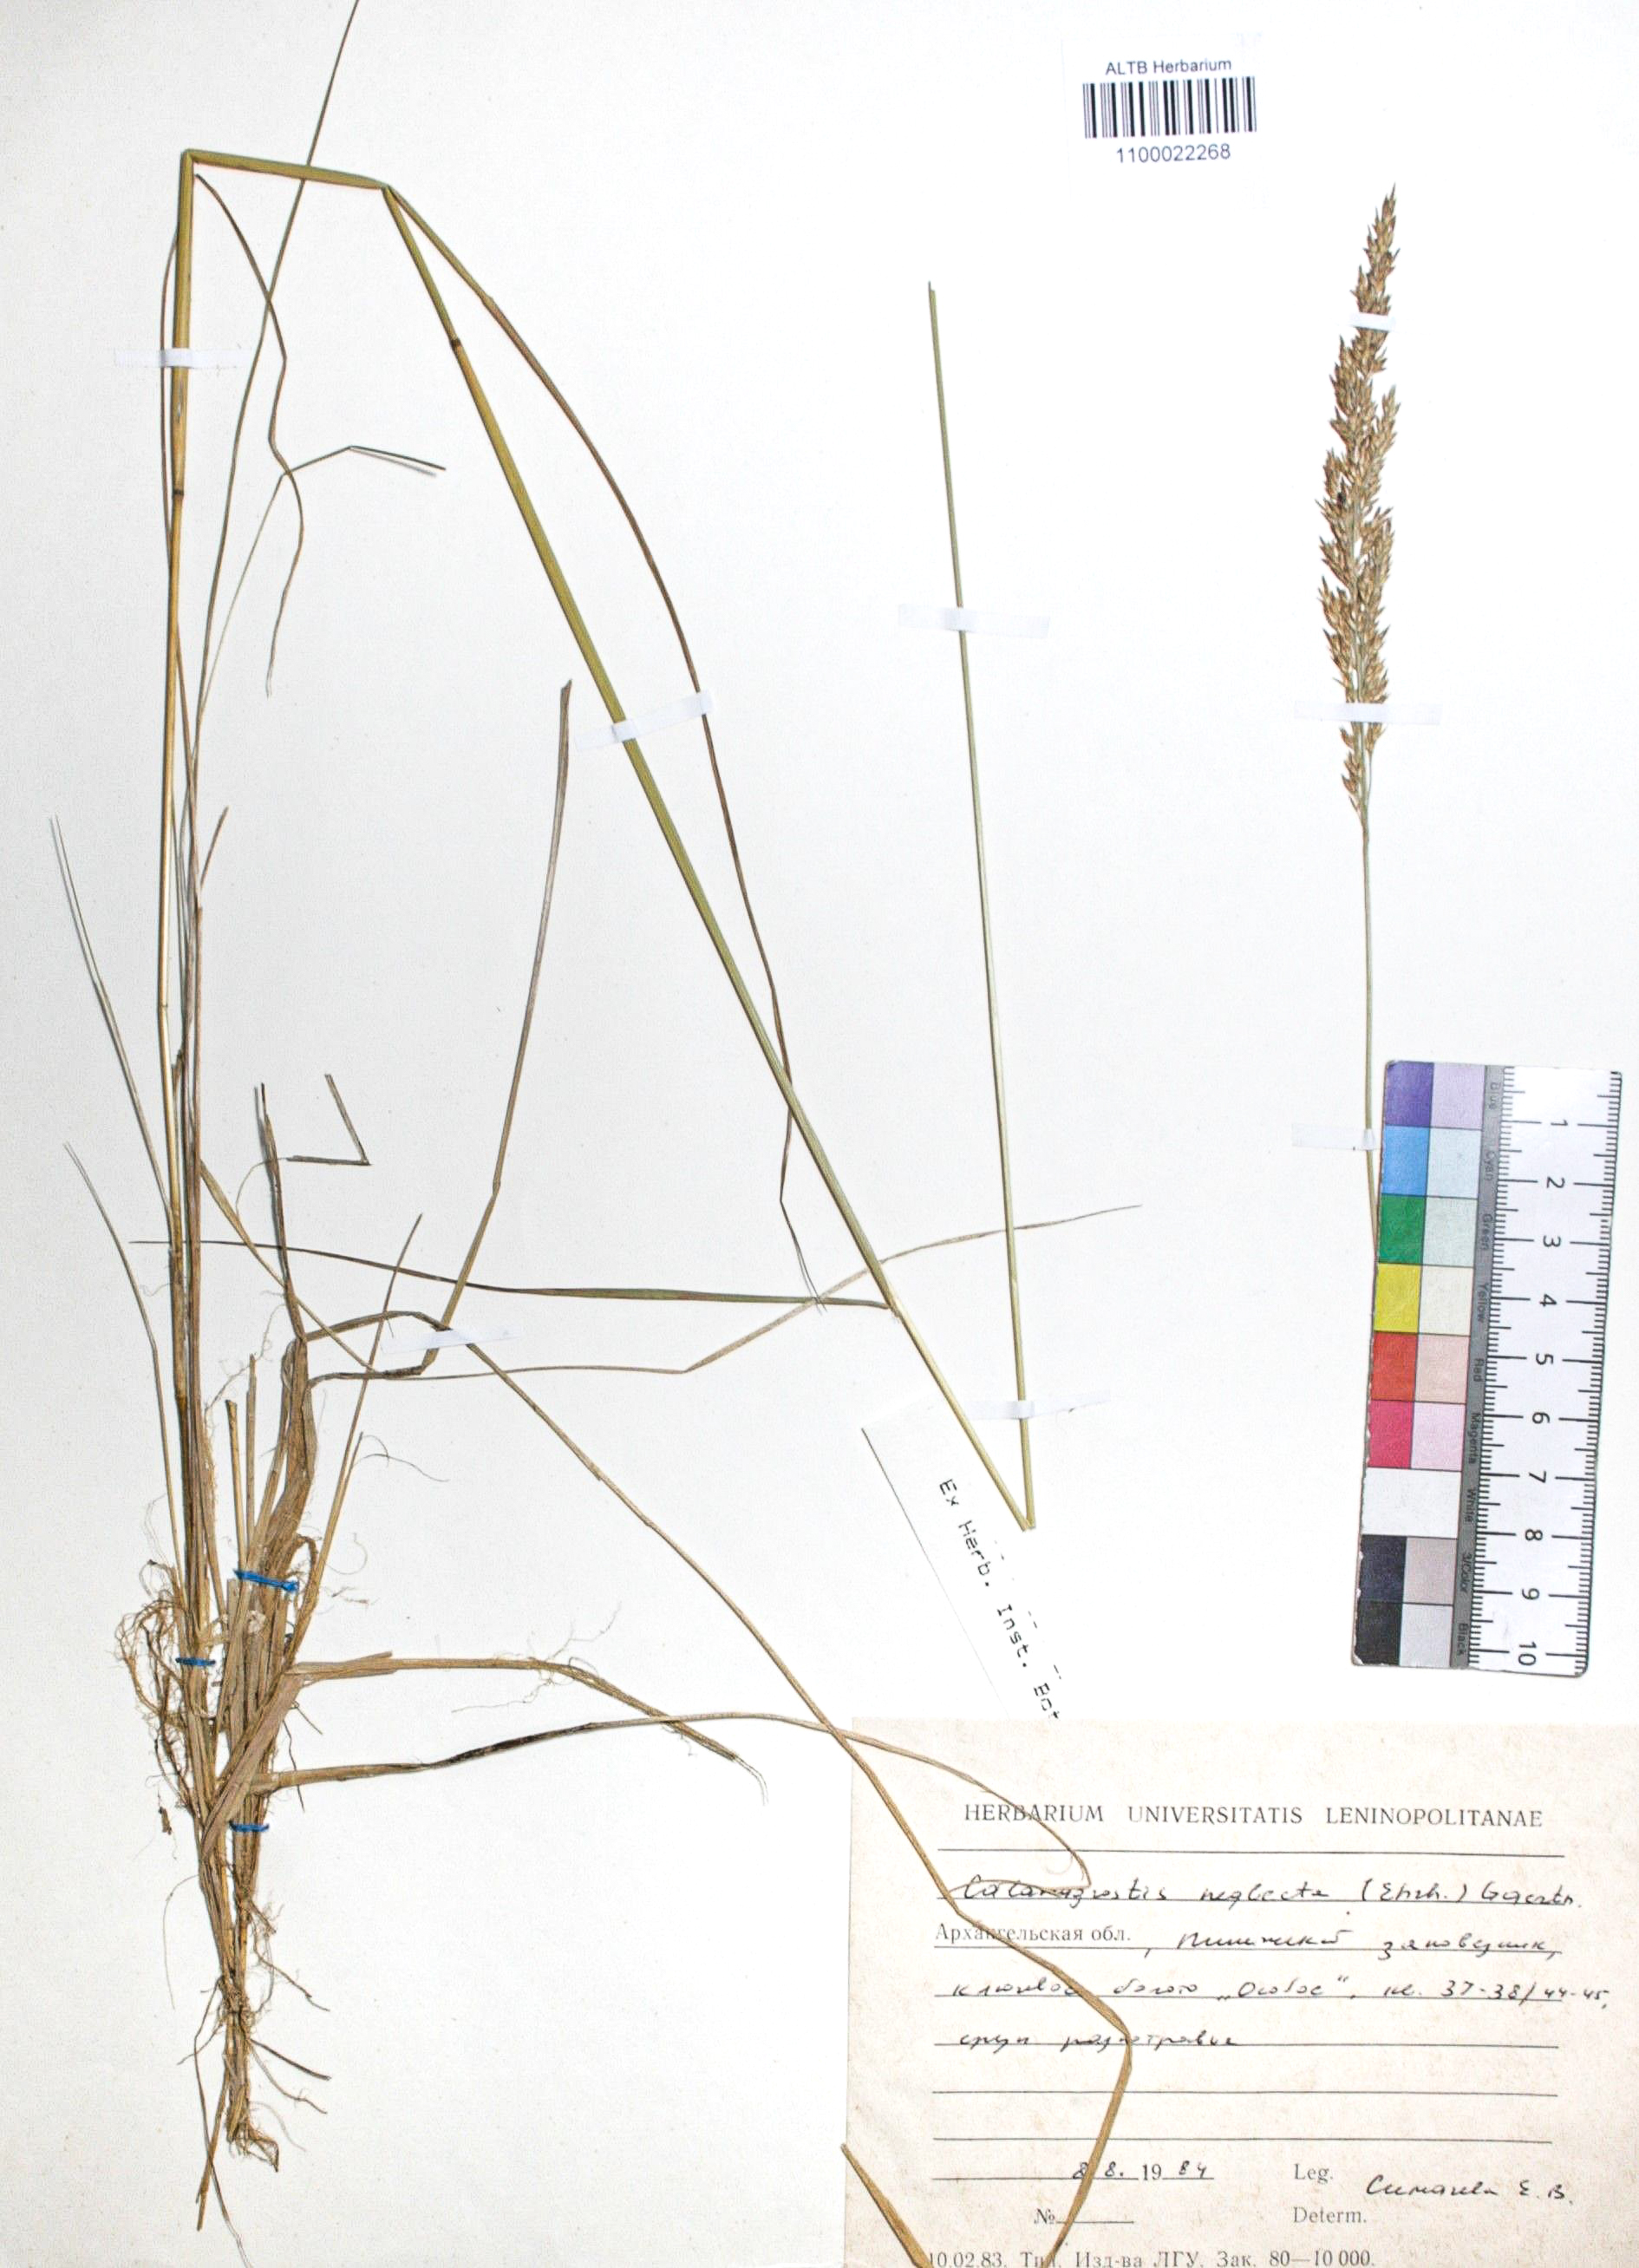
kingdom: Plantae
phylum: Tracheophyta
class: Liliopsida
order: Poales
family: Poaceae
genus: Achnatherum
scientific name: Achnatherum calamagrostis
